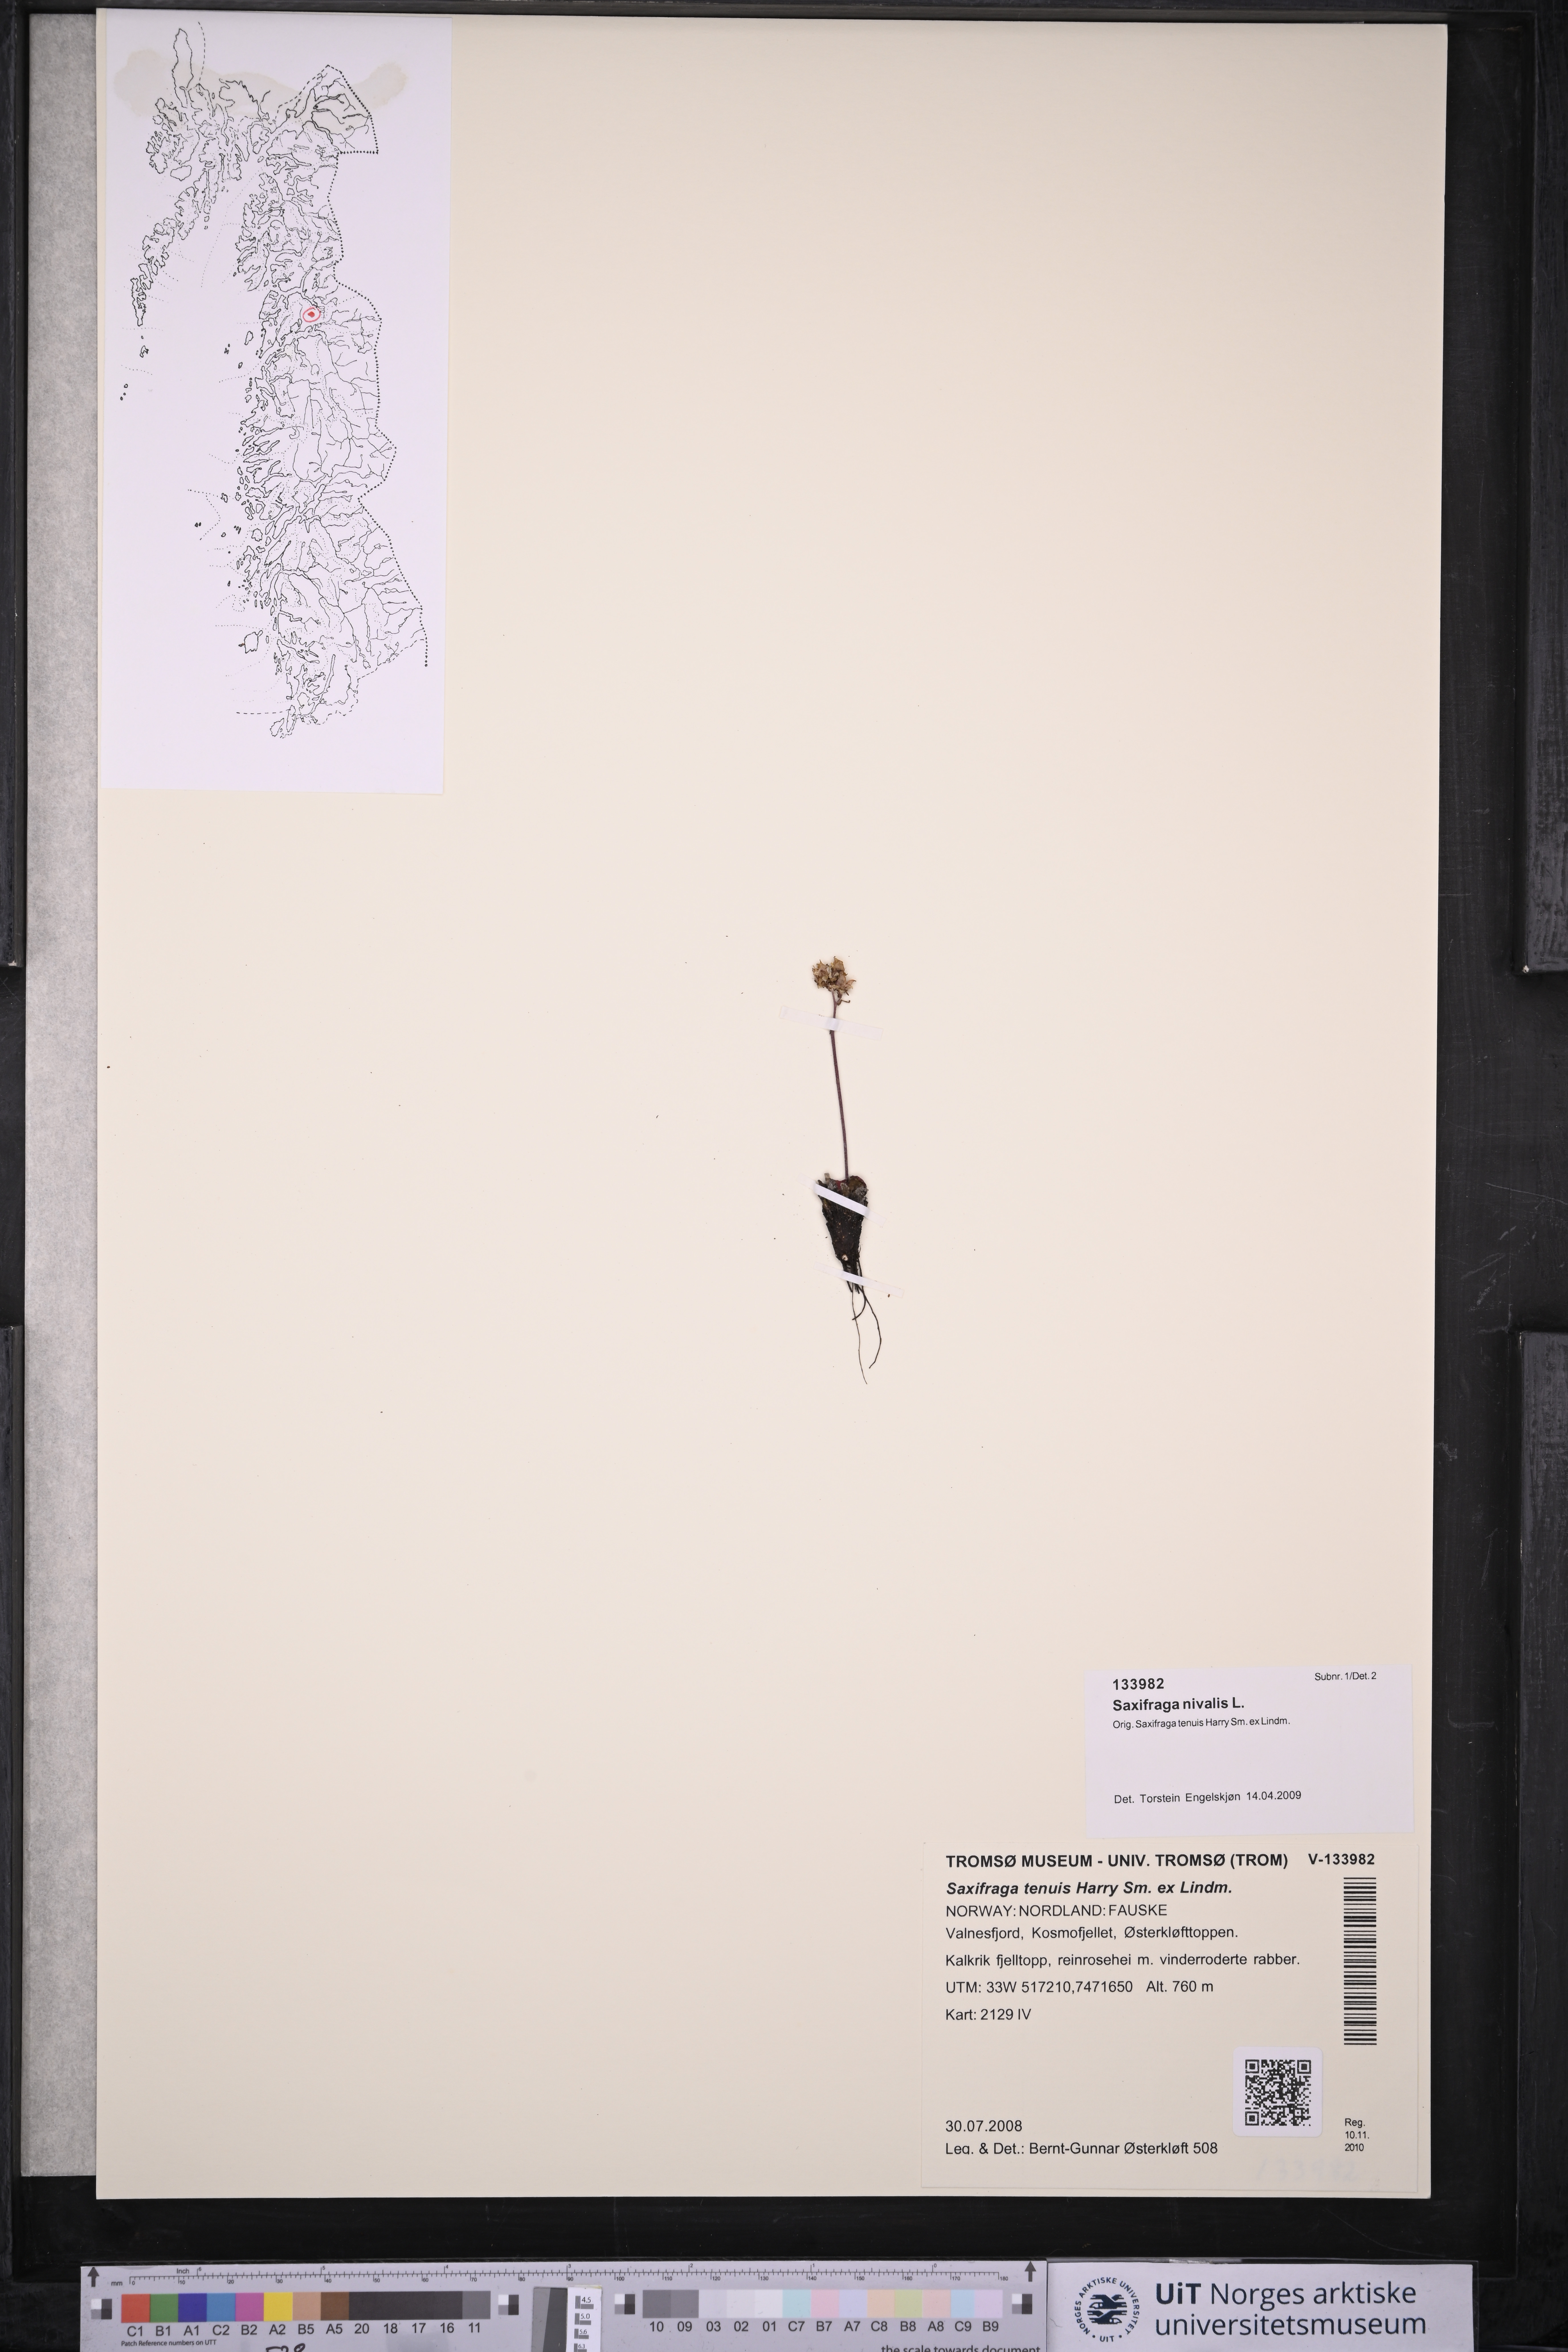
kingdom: Plantae
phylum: Tracheophyta
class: Magnoliopsida
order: Saxifragales
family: Saxifragaceae
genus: Micranthes
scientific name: Micranthes nivalis
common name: Alpine saxifrage
